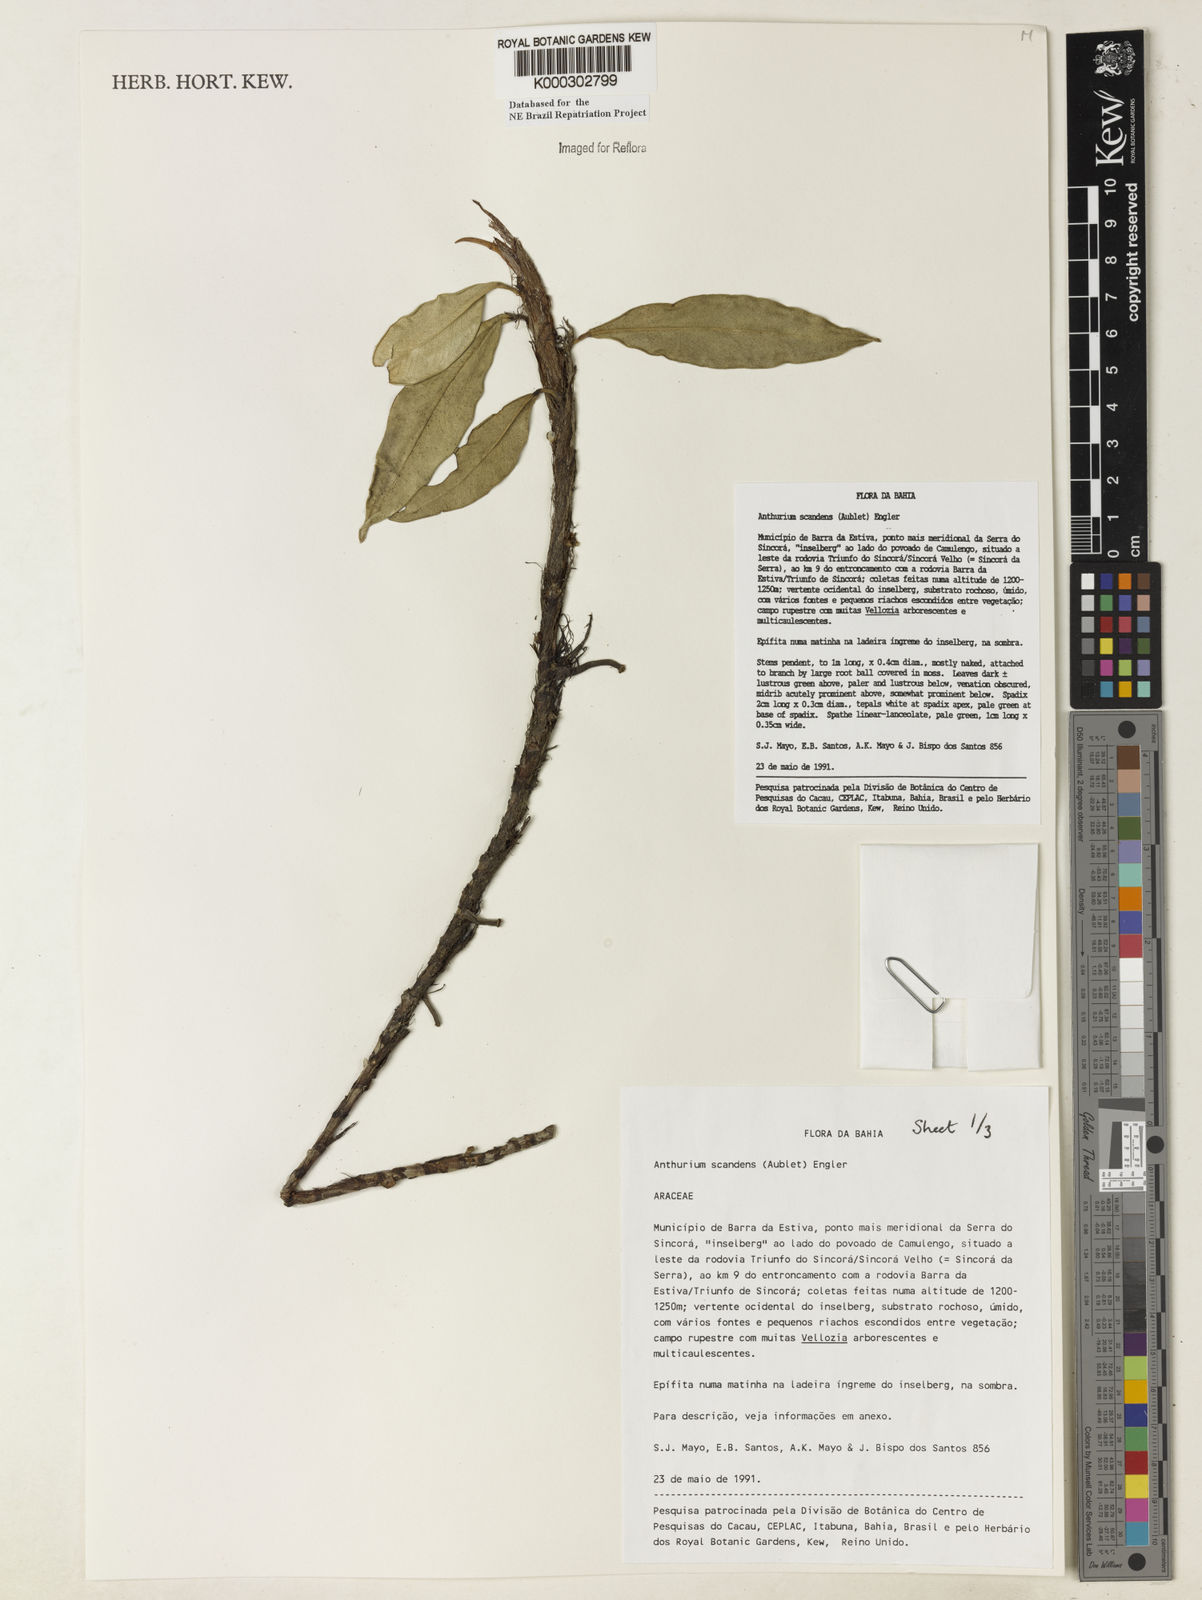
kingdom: Plantae
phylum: Tracheophyta
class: Liliopsida
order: Alismatales
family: Araceae
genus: Anthurium
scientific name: Anthurium scandens
